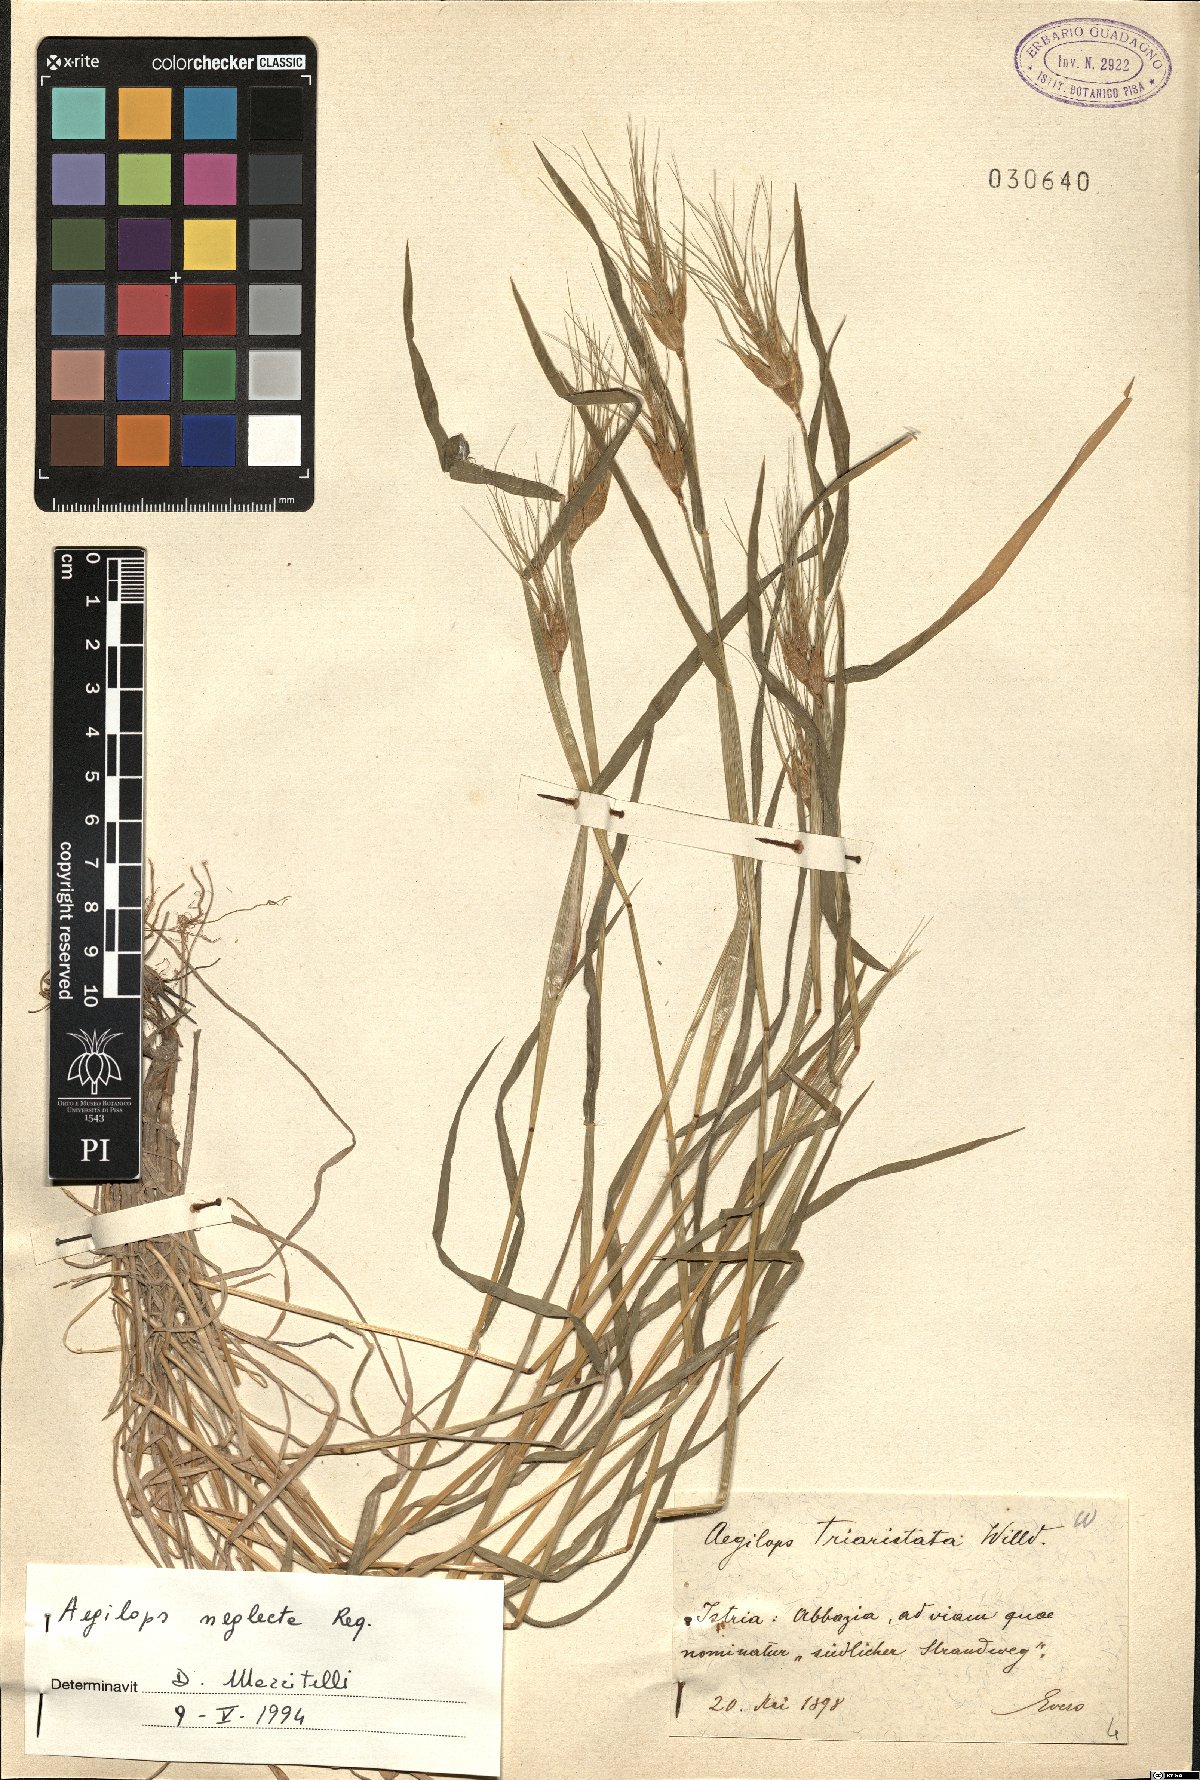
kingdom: Plantae
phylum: Tracheophyta
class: Liliopsida
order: Poales
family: Poaceae
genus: Aegilops
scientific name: Aegilops neglecta
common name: Three-awn goat grass
